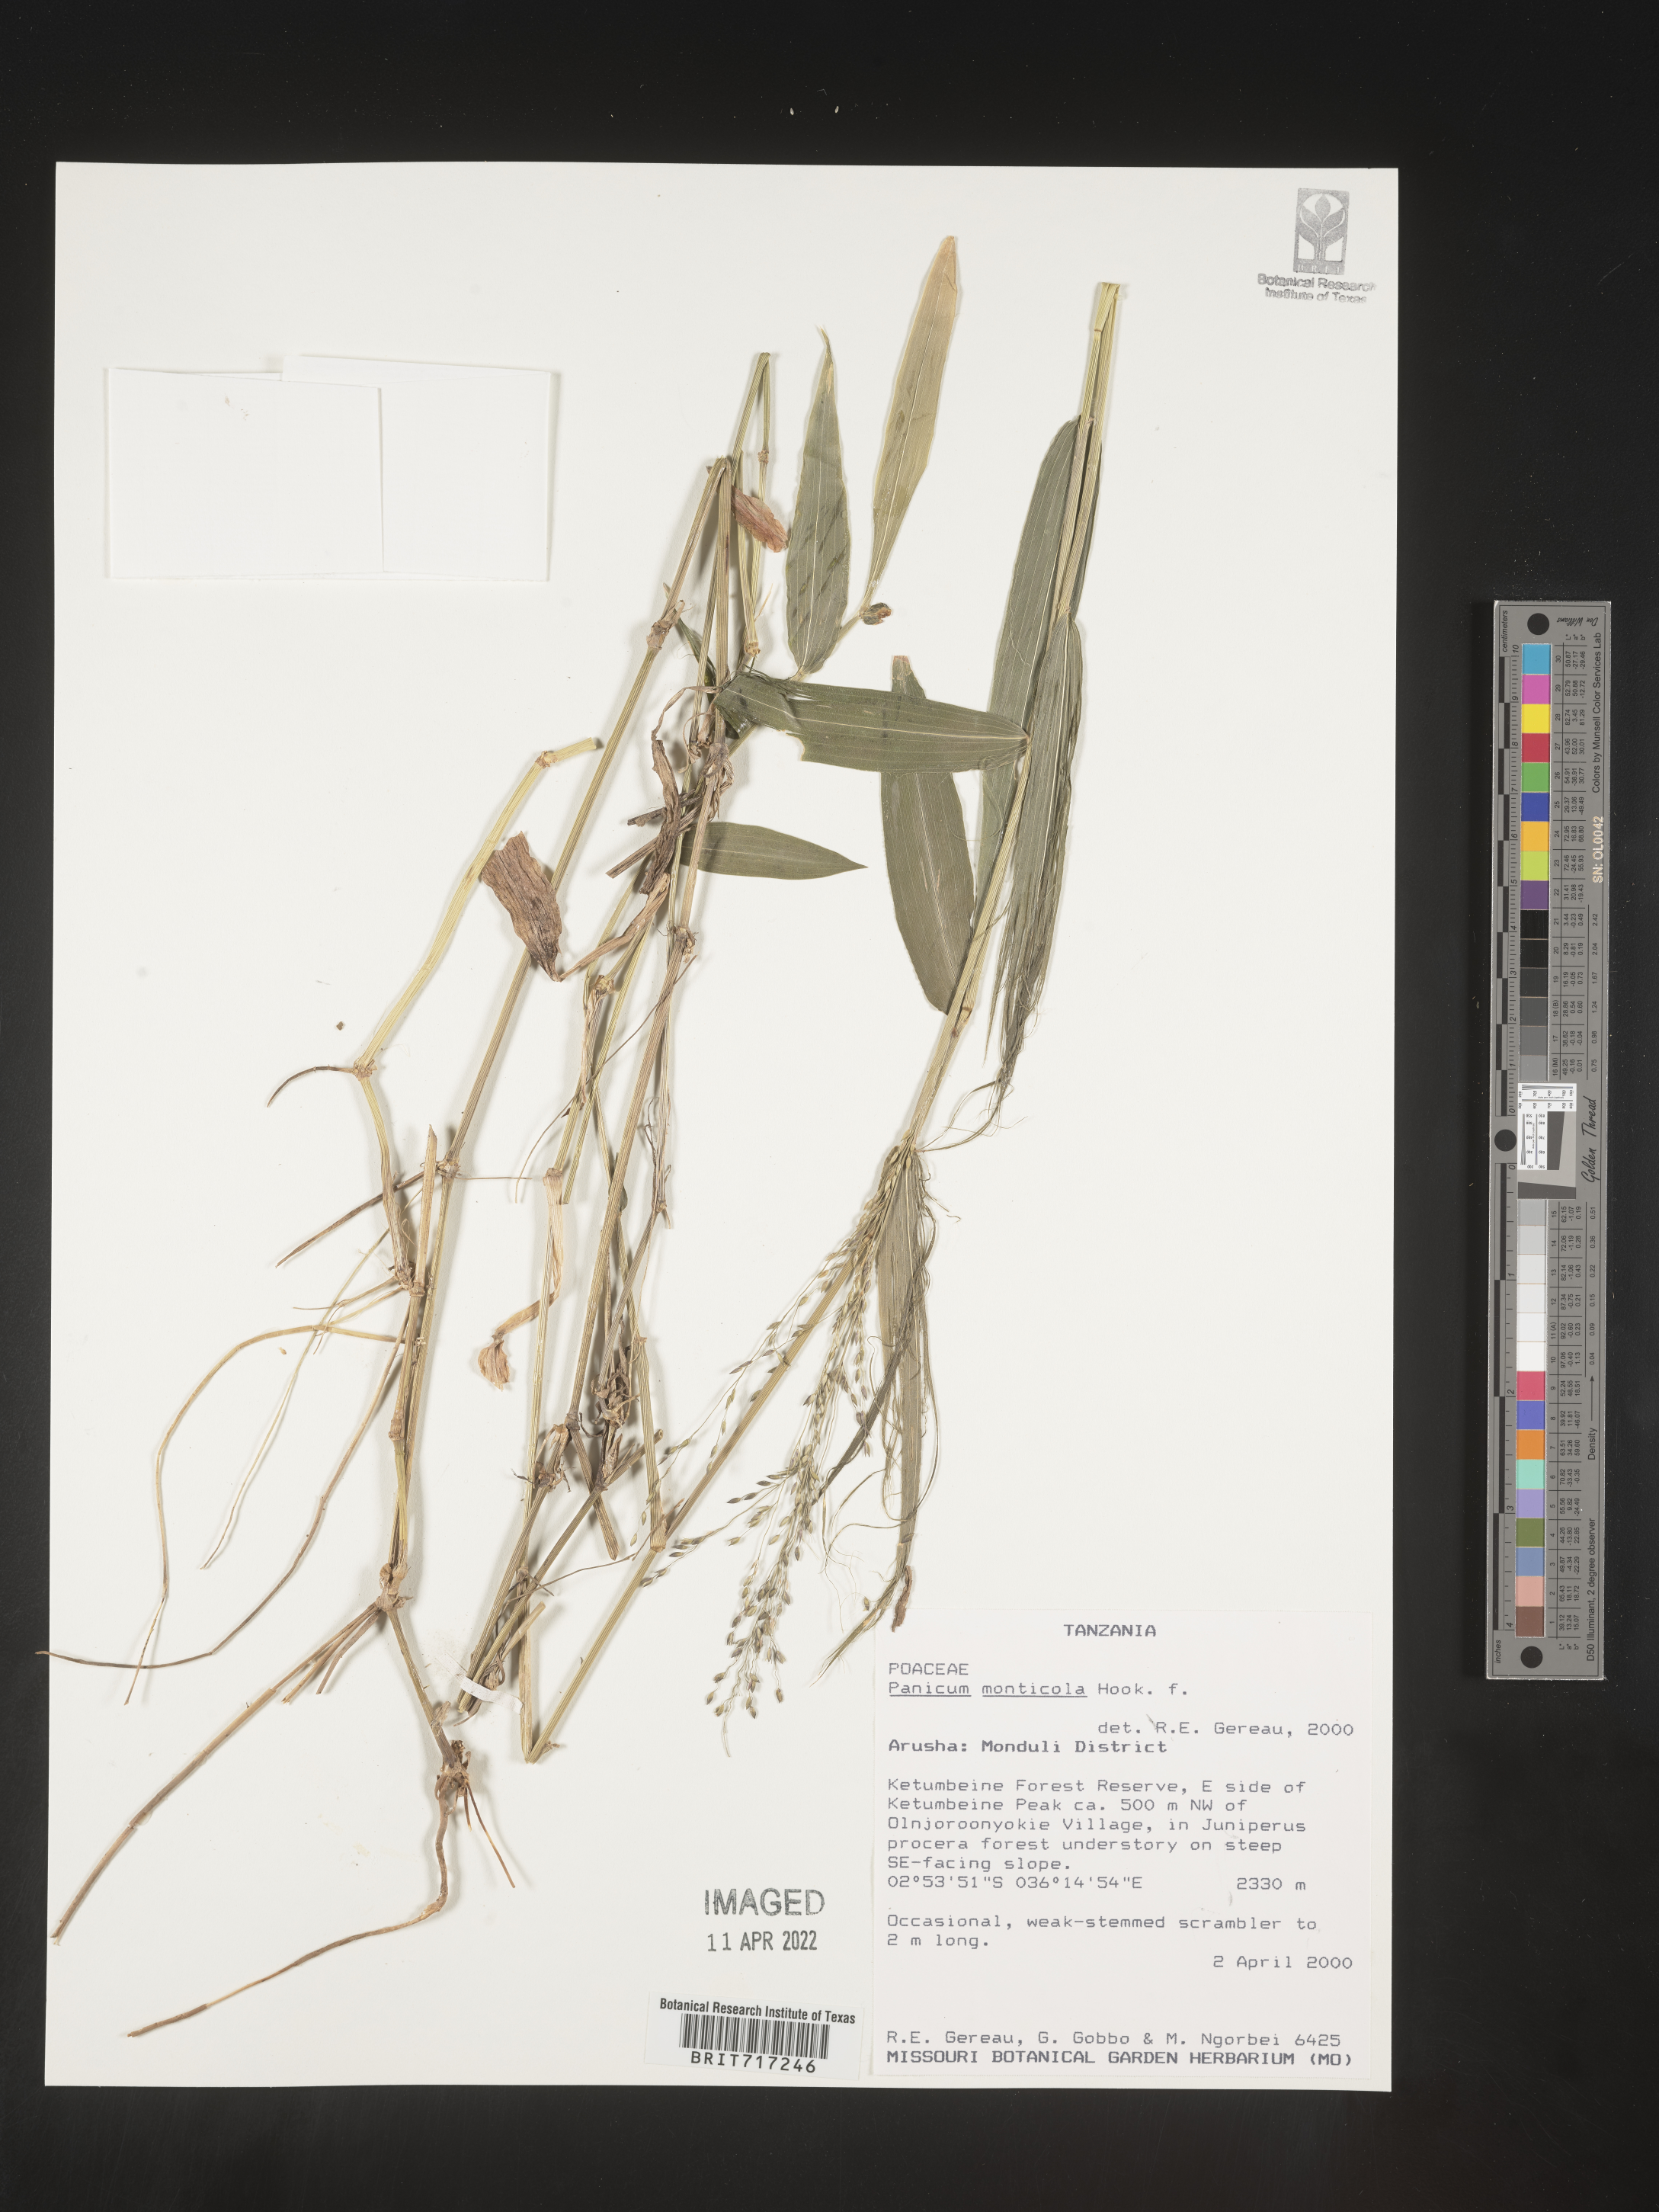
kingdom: Plantae
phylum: Tracheophyta
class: Liliopsida
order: Poales
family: Poaceae
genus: Panicum
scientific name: Panicum
